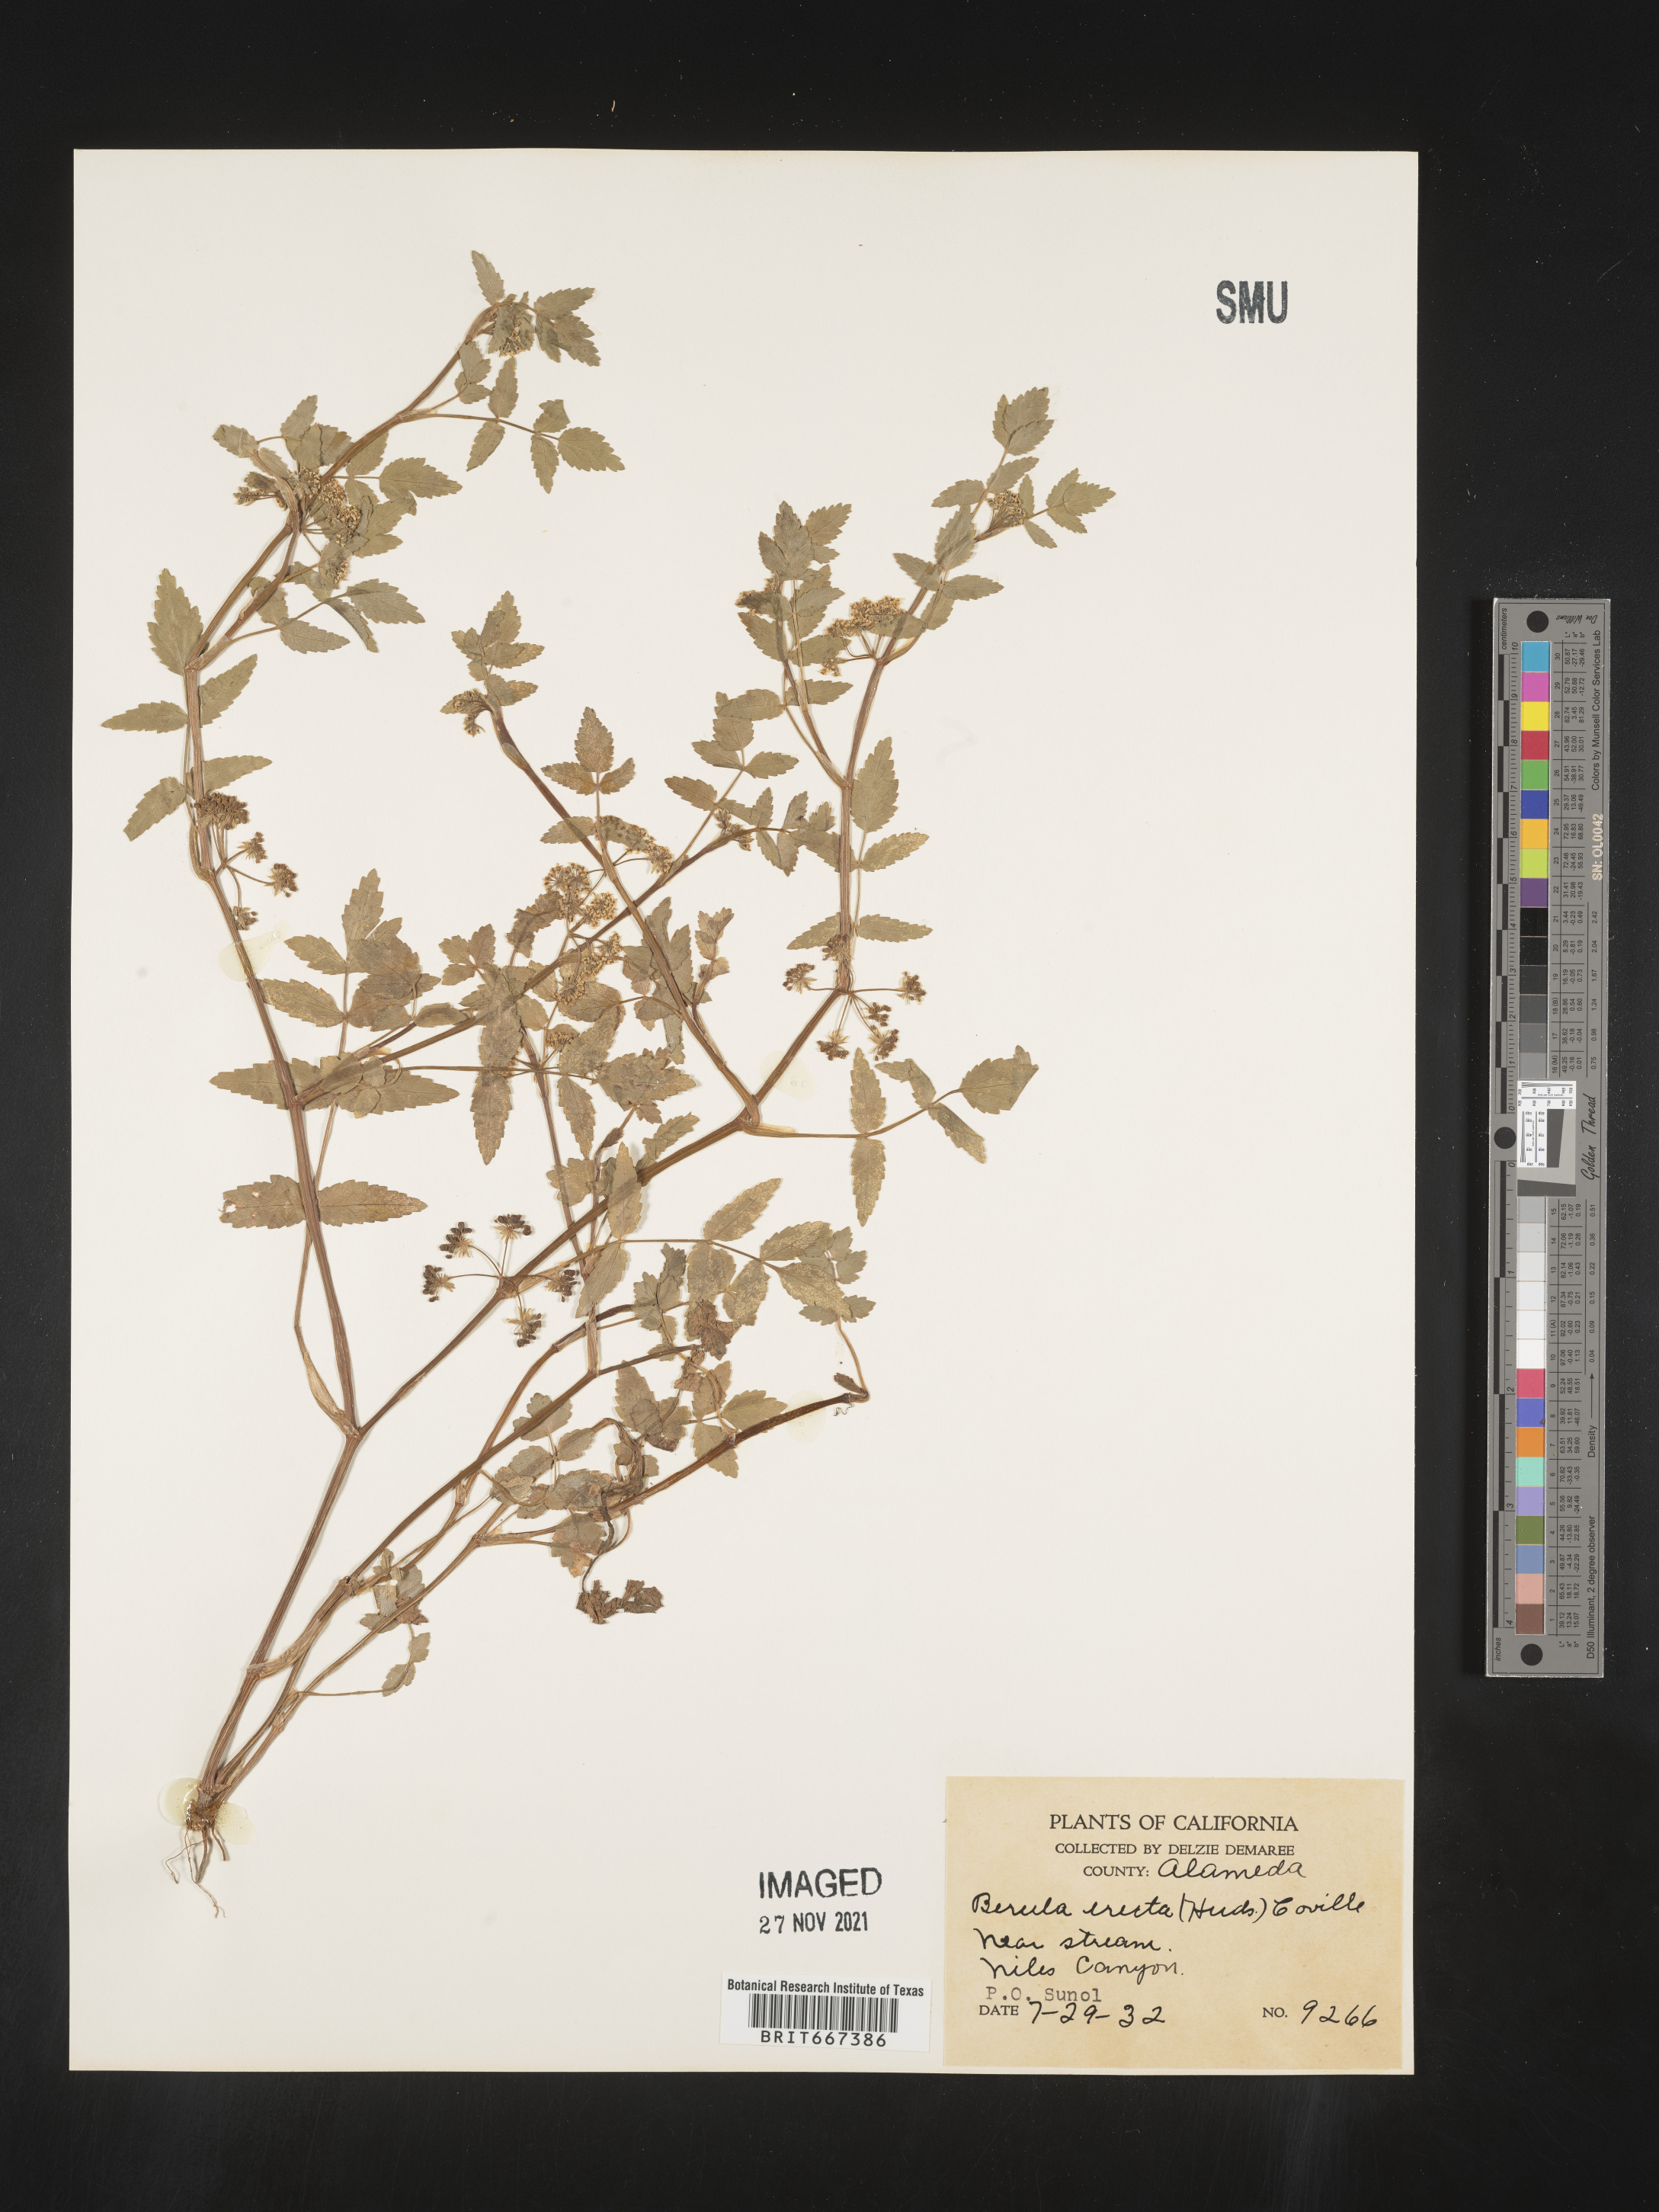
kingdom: Plantae
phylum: Tracheophyta
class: Magnoliopsida
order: Apiales
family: Apiaceae
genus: Berula
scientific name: Berula
